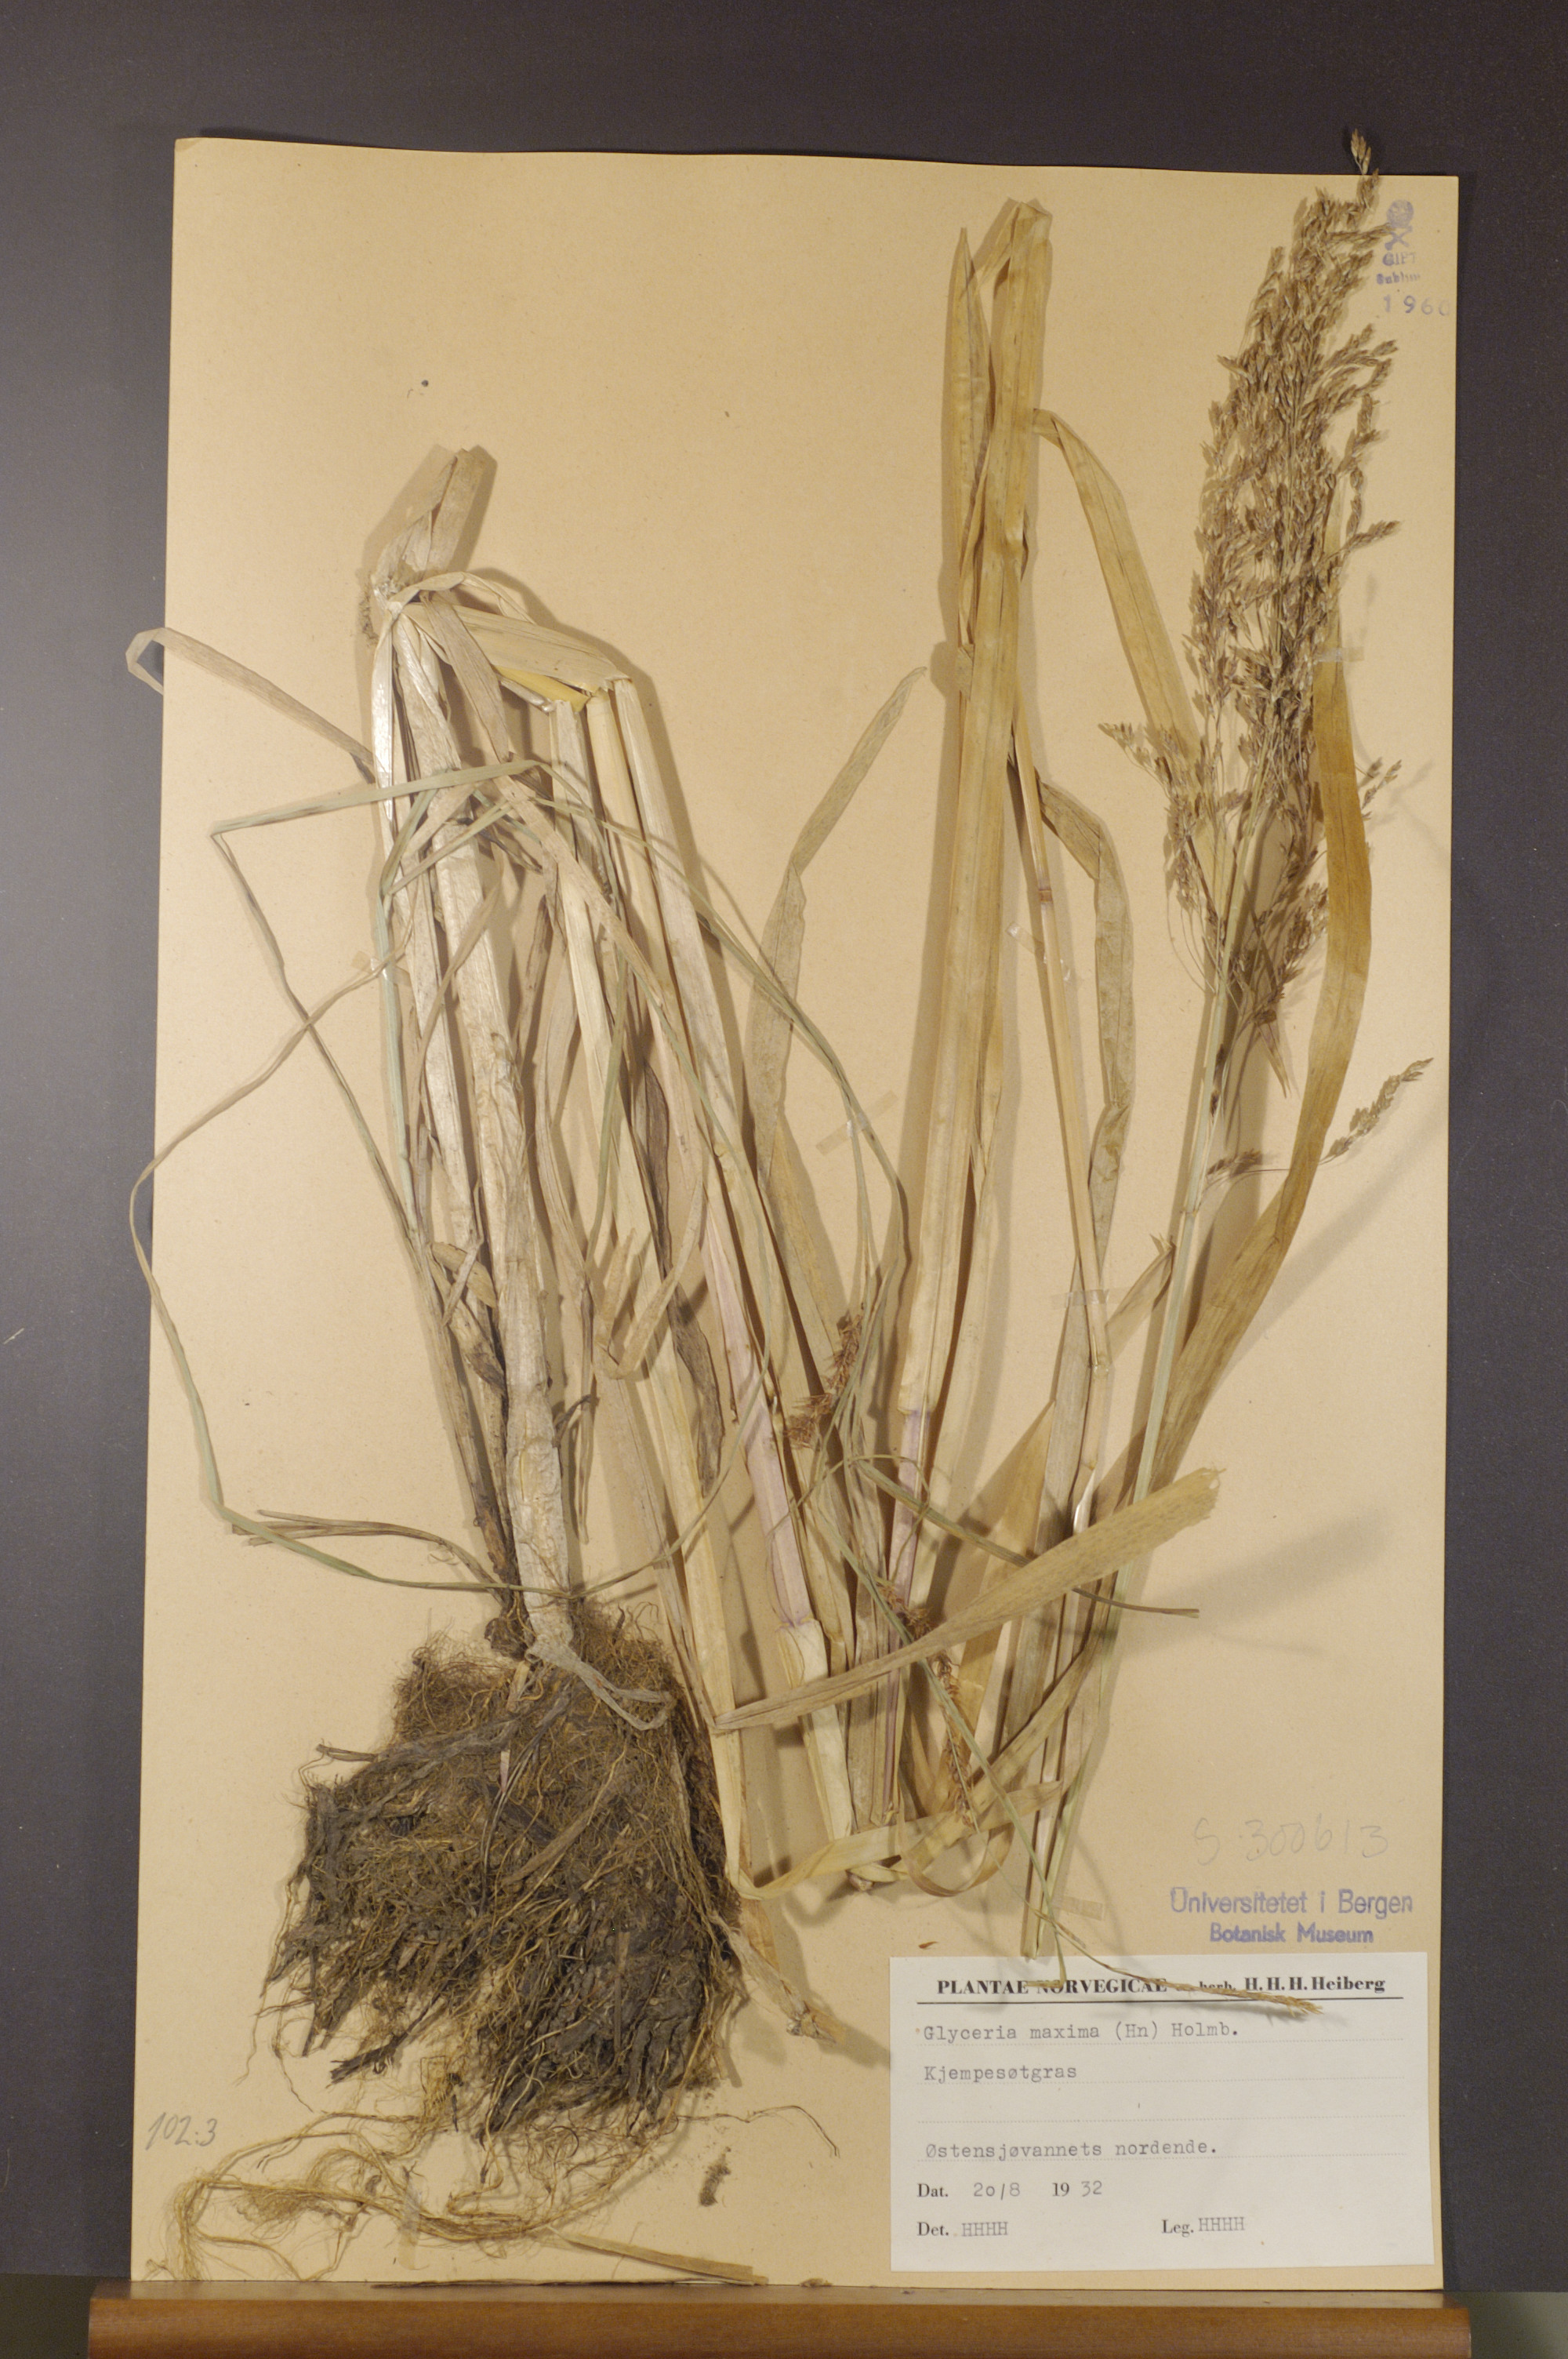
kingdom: Plantae
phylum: Tracheophyta
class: Liliopsida
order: Poales
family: Poaceae
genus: Glyceria
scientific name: Glyceria maxima
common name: Reed mannagrass
